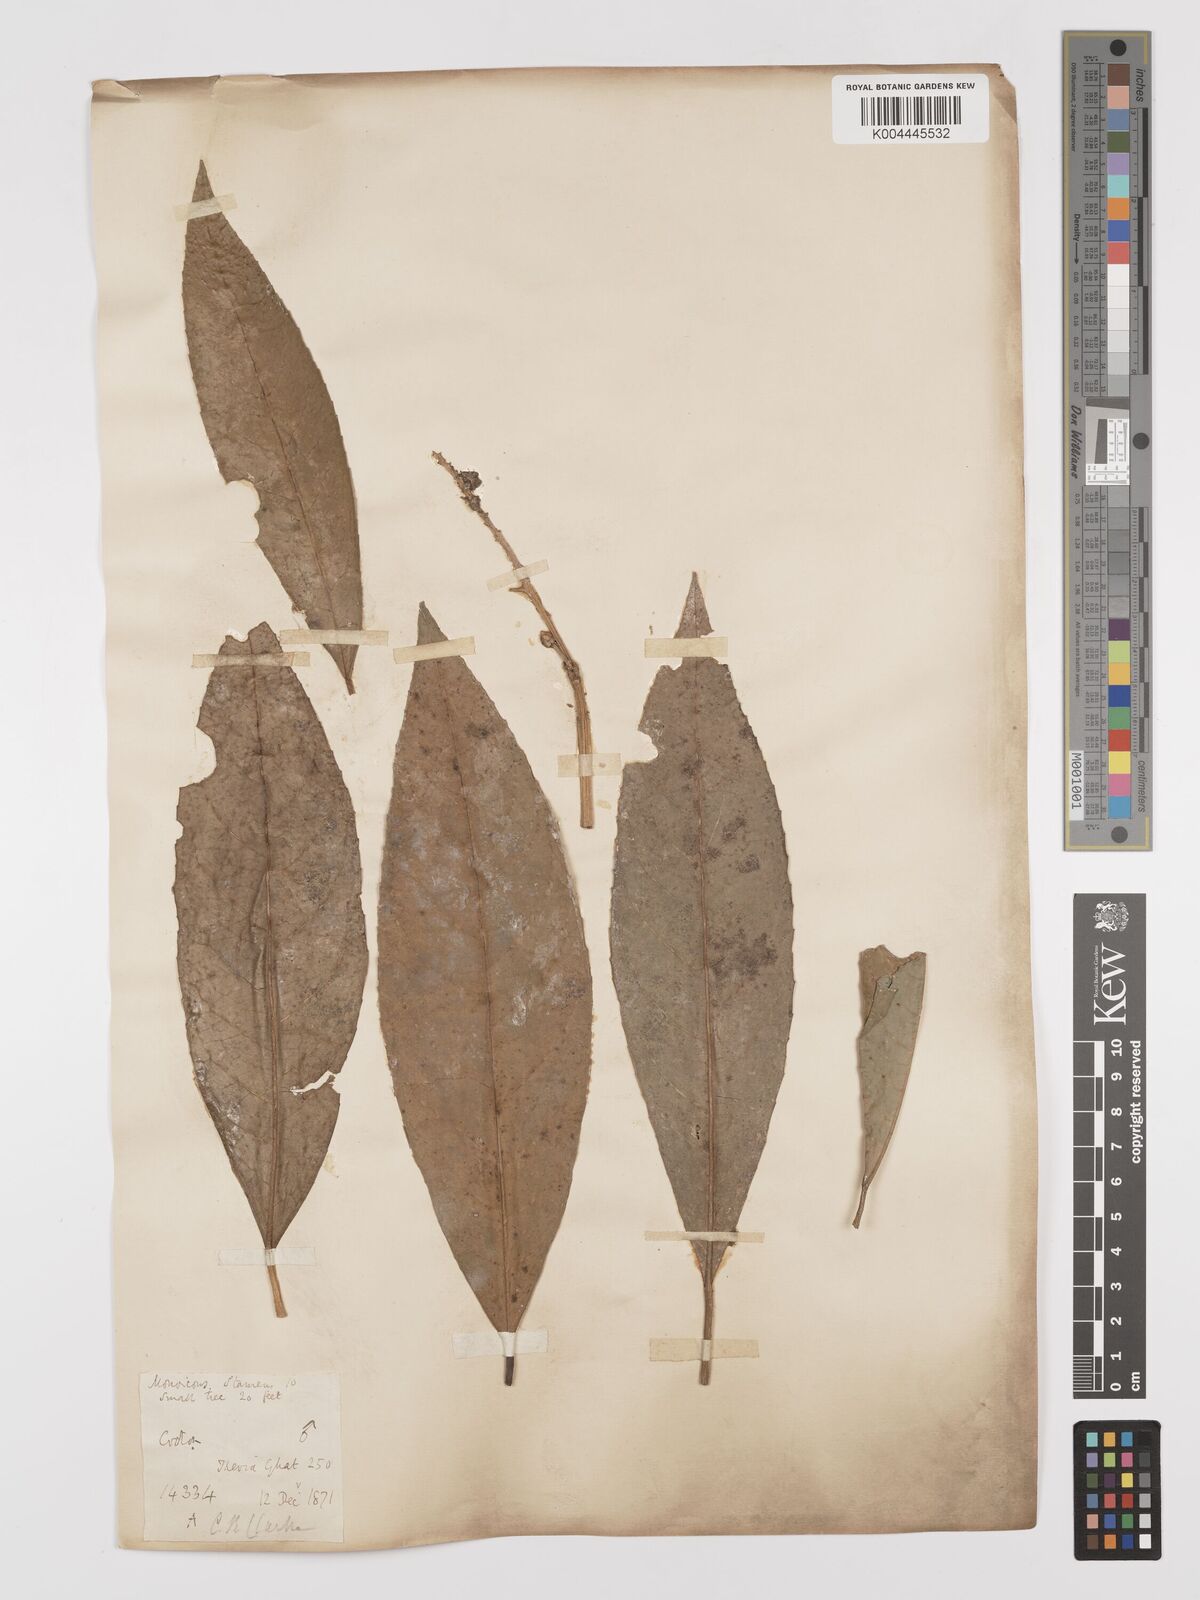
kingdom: Plantae
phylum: Tracheophyta
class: Magnoliopsida
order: Malpighiales
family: Euphorbiaceae
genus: Croton
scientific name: Croton joufra
